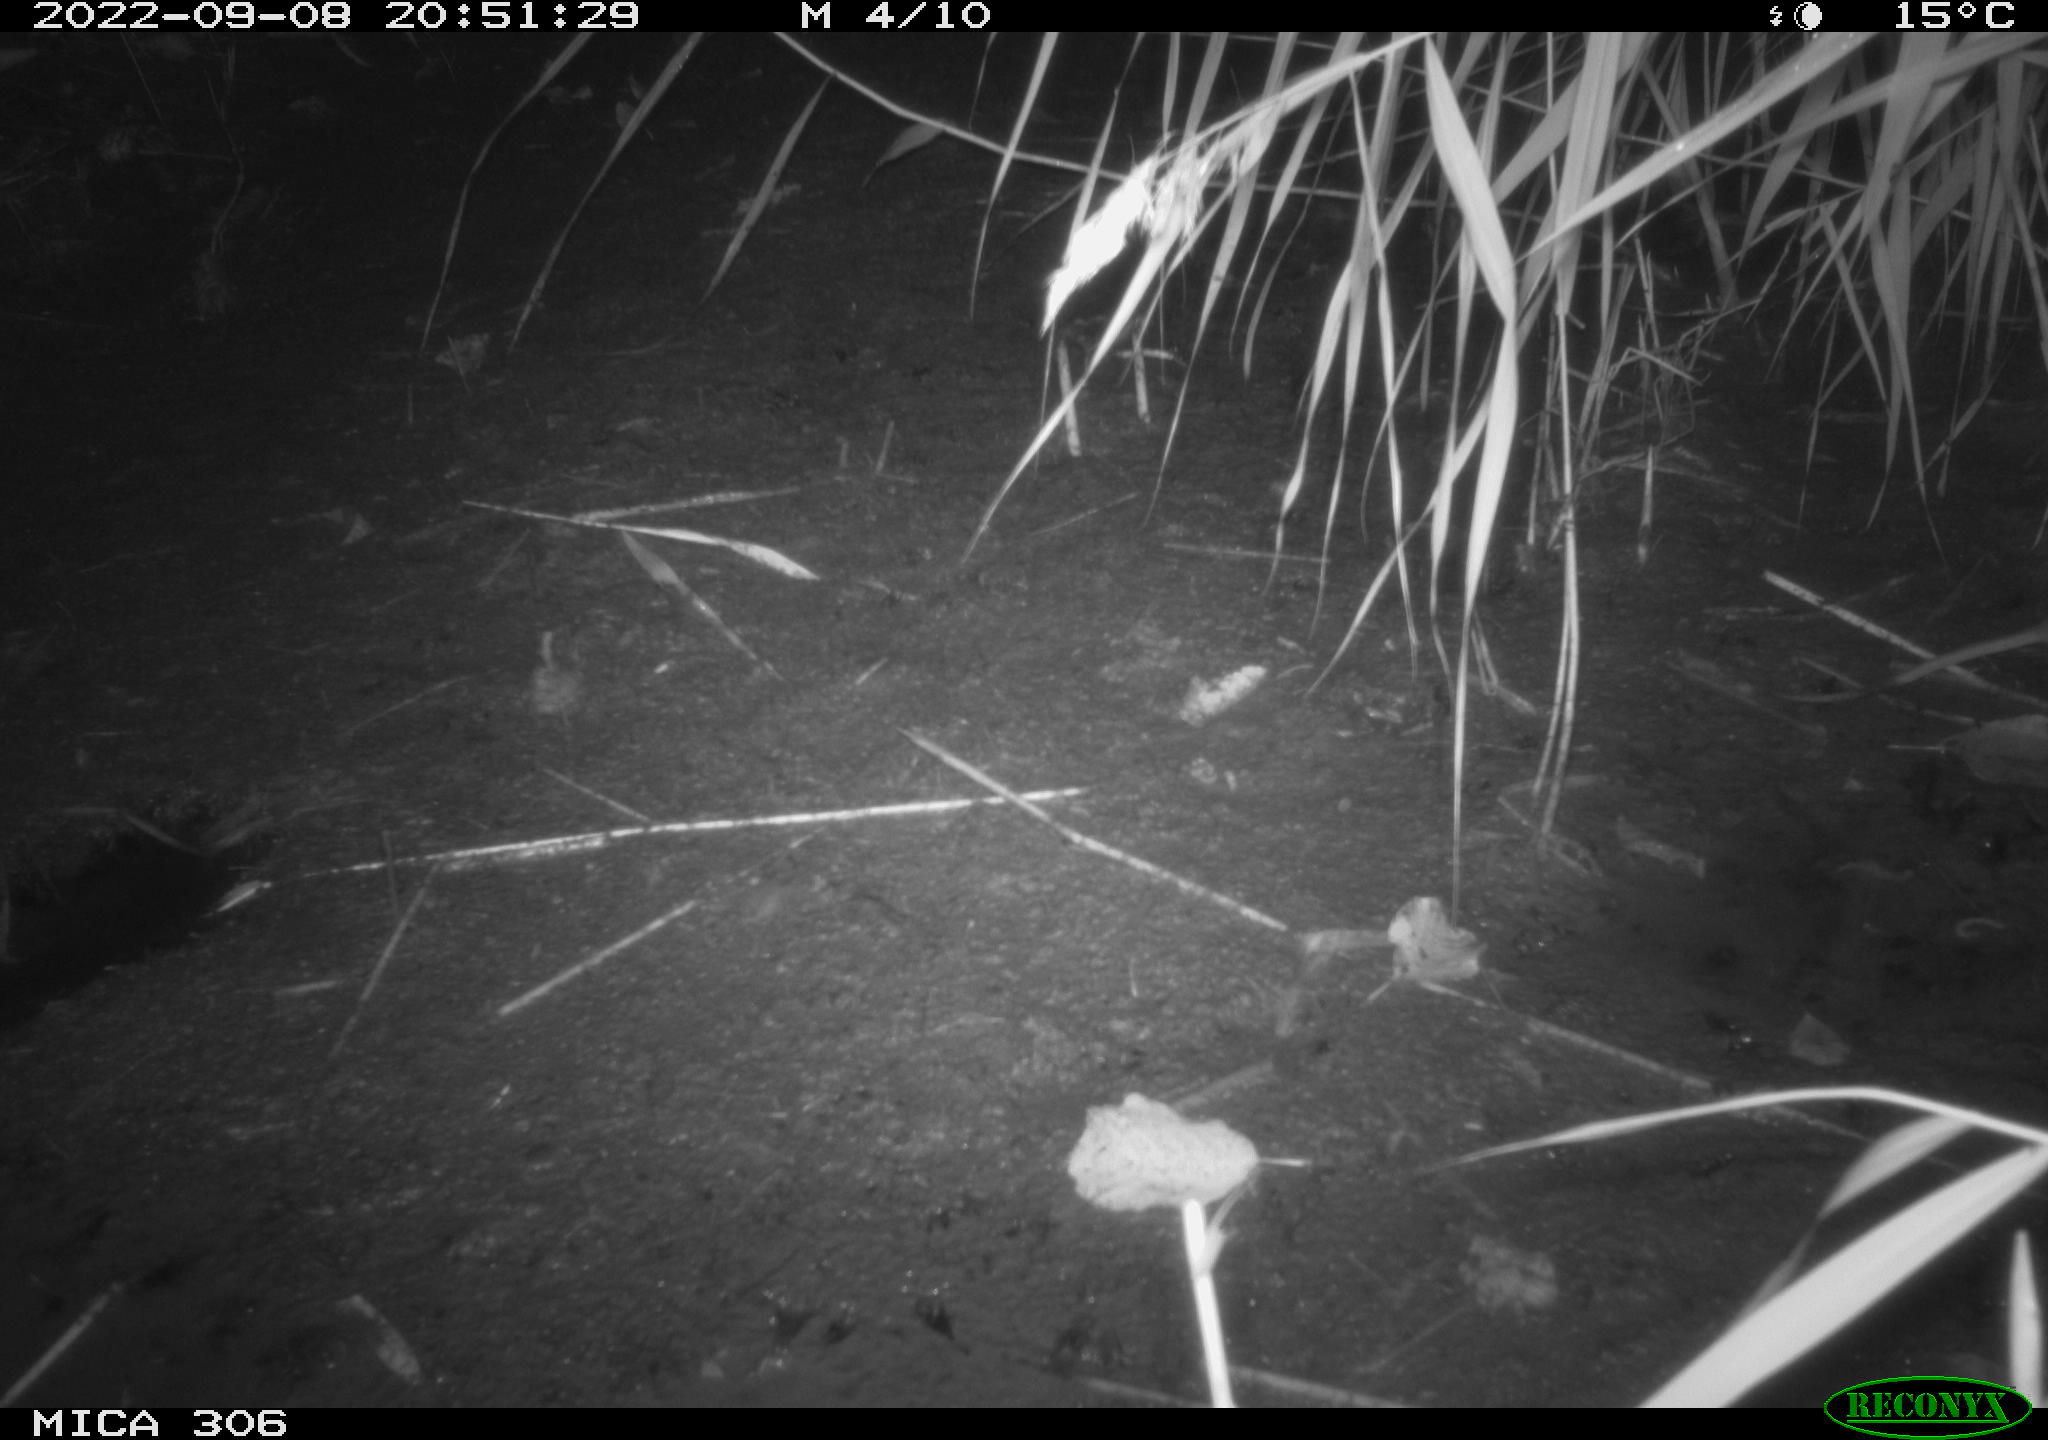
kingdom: Animalia
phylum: Chordata
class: Mammalia
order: Rodentia
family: Muridae
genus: Rattus
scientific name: Rattus norvegicus
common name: Brown rat
